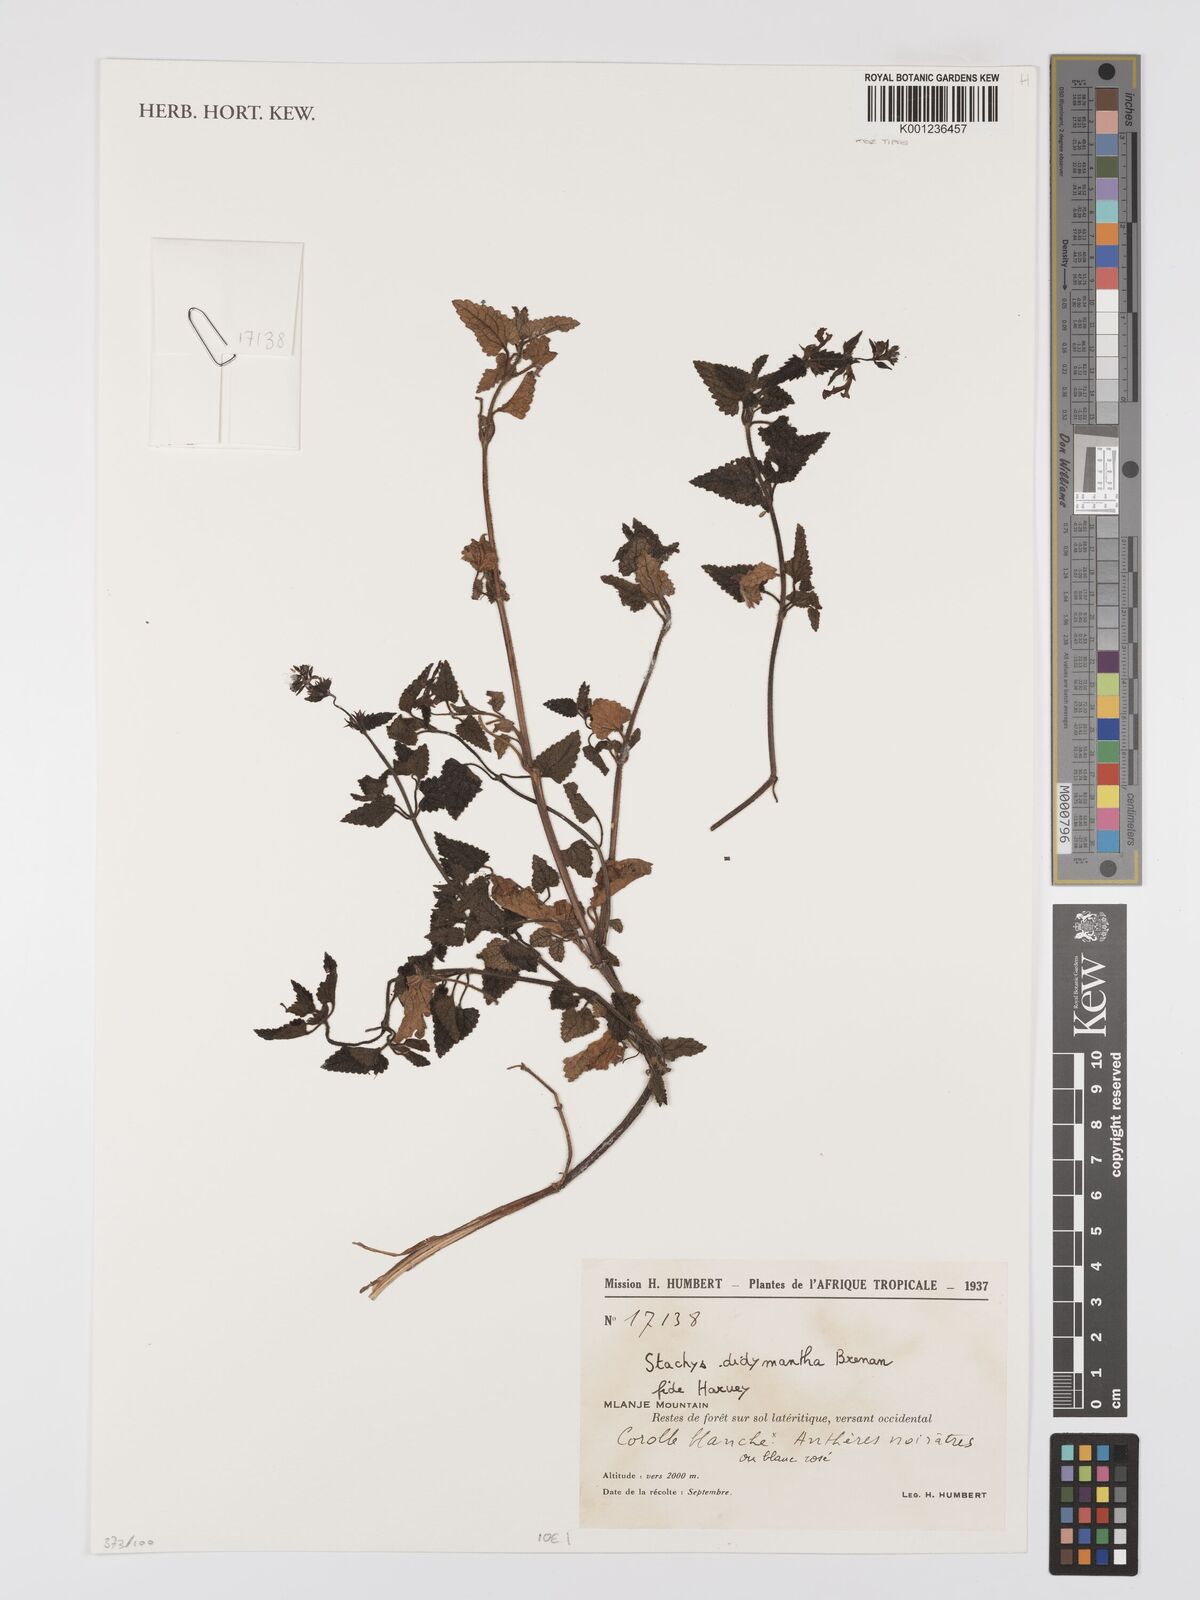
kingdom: Plantae
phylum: Tracheophyta
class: Magnoliopsida
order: Lamiales
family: Lamiaceae
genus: Stachys
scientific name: Stachys didymantha
